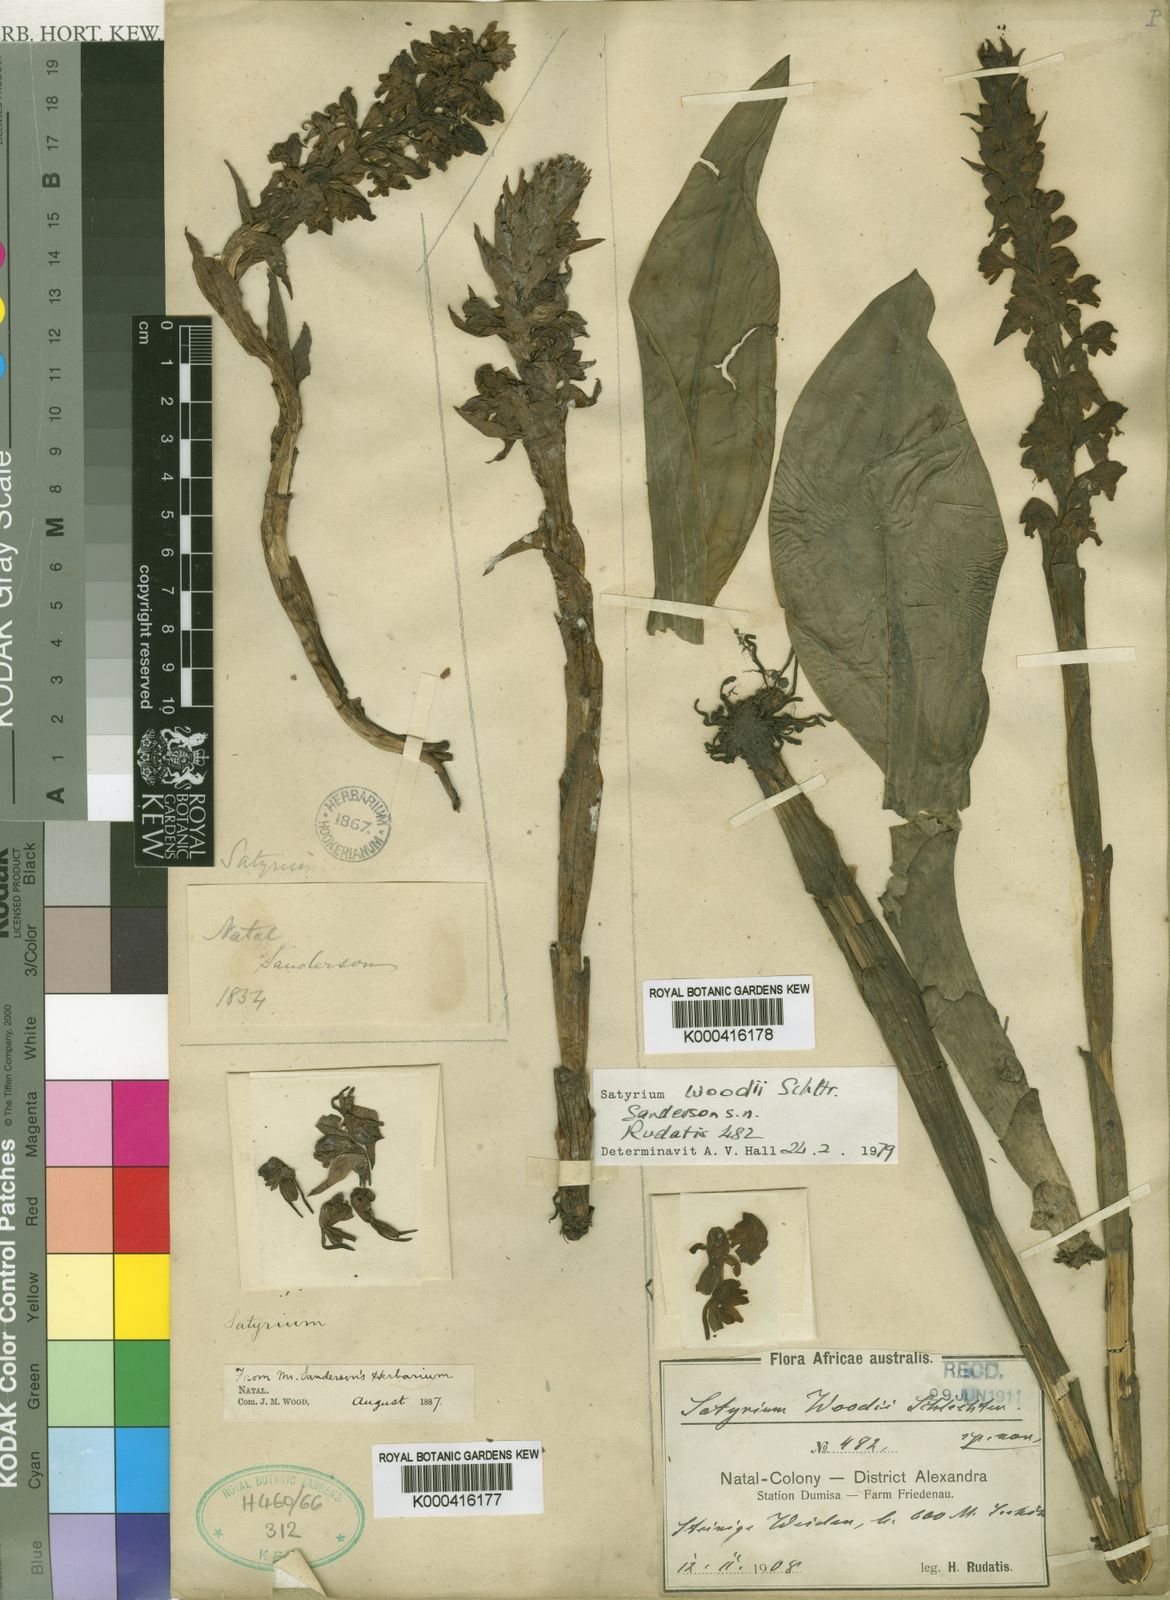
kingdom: Plantae
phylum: Tracheophyta
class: Liliopsida
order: Asparagales
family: Orchidaceae
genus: Satyrium
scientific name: Satyrium neglectum
